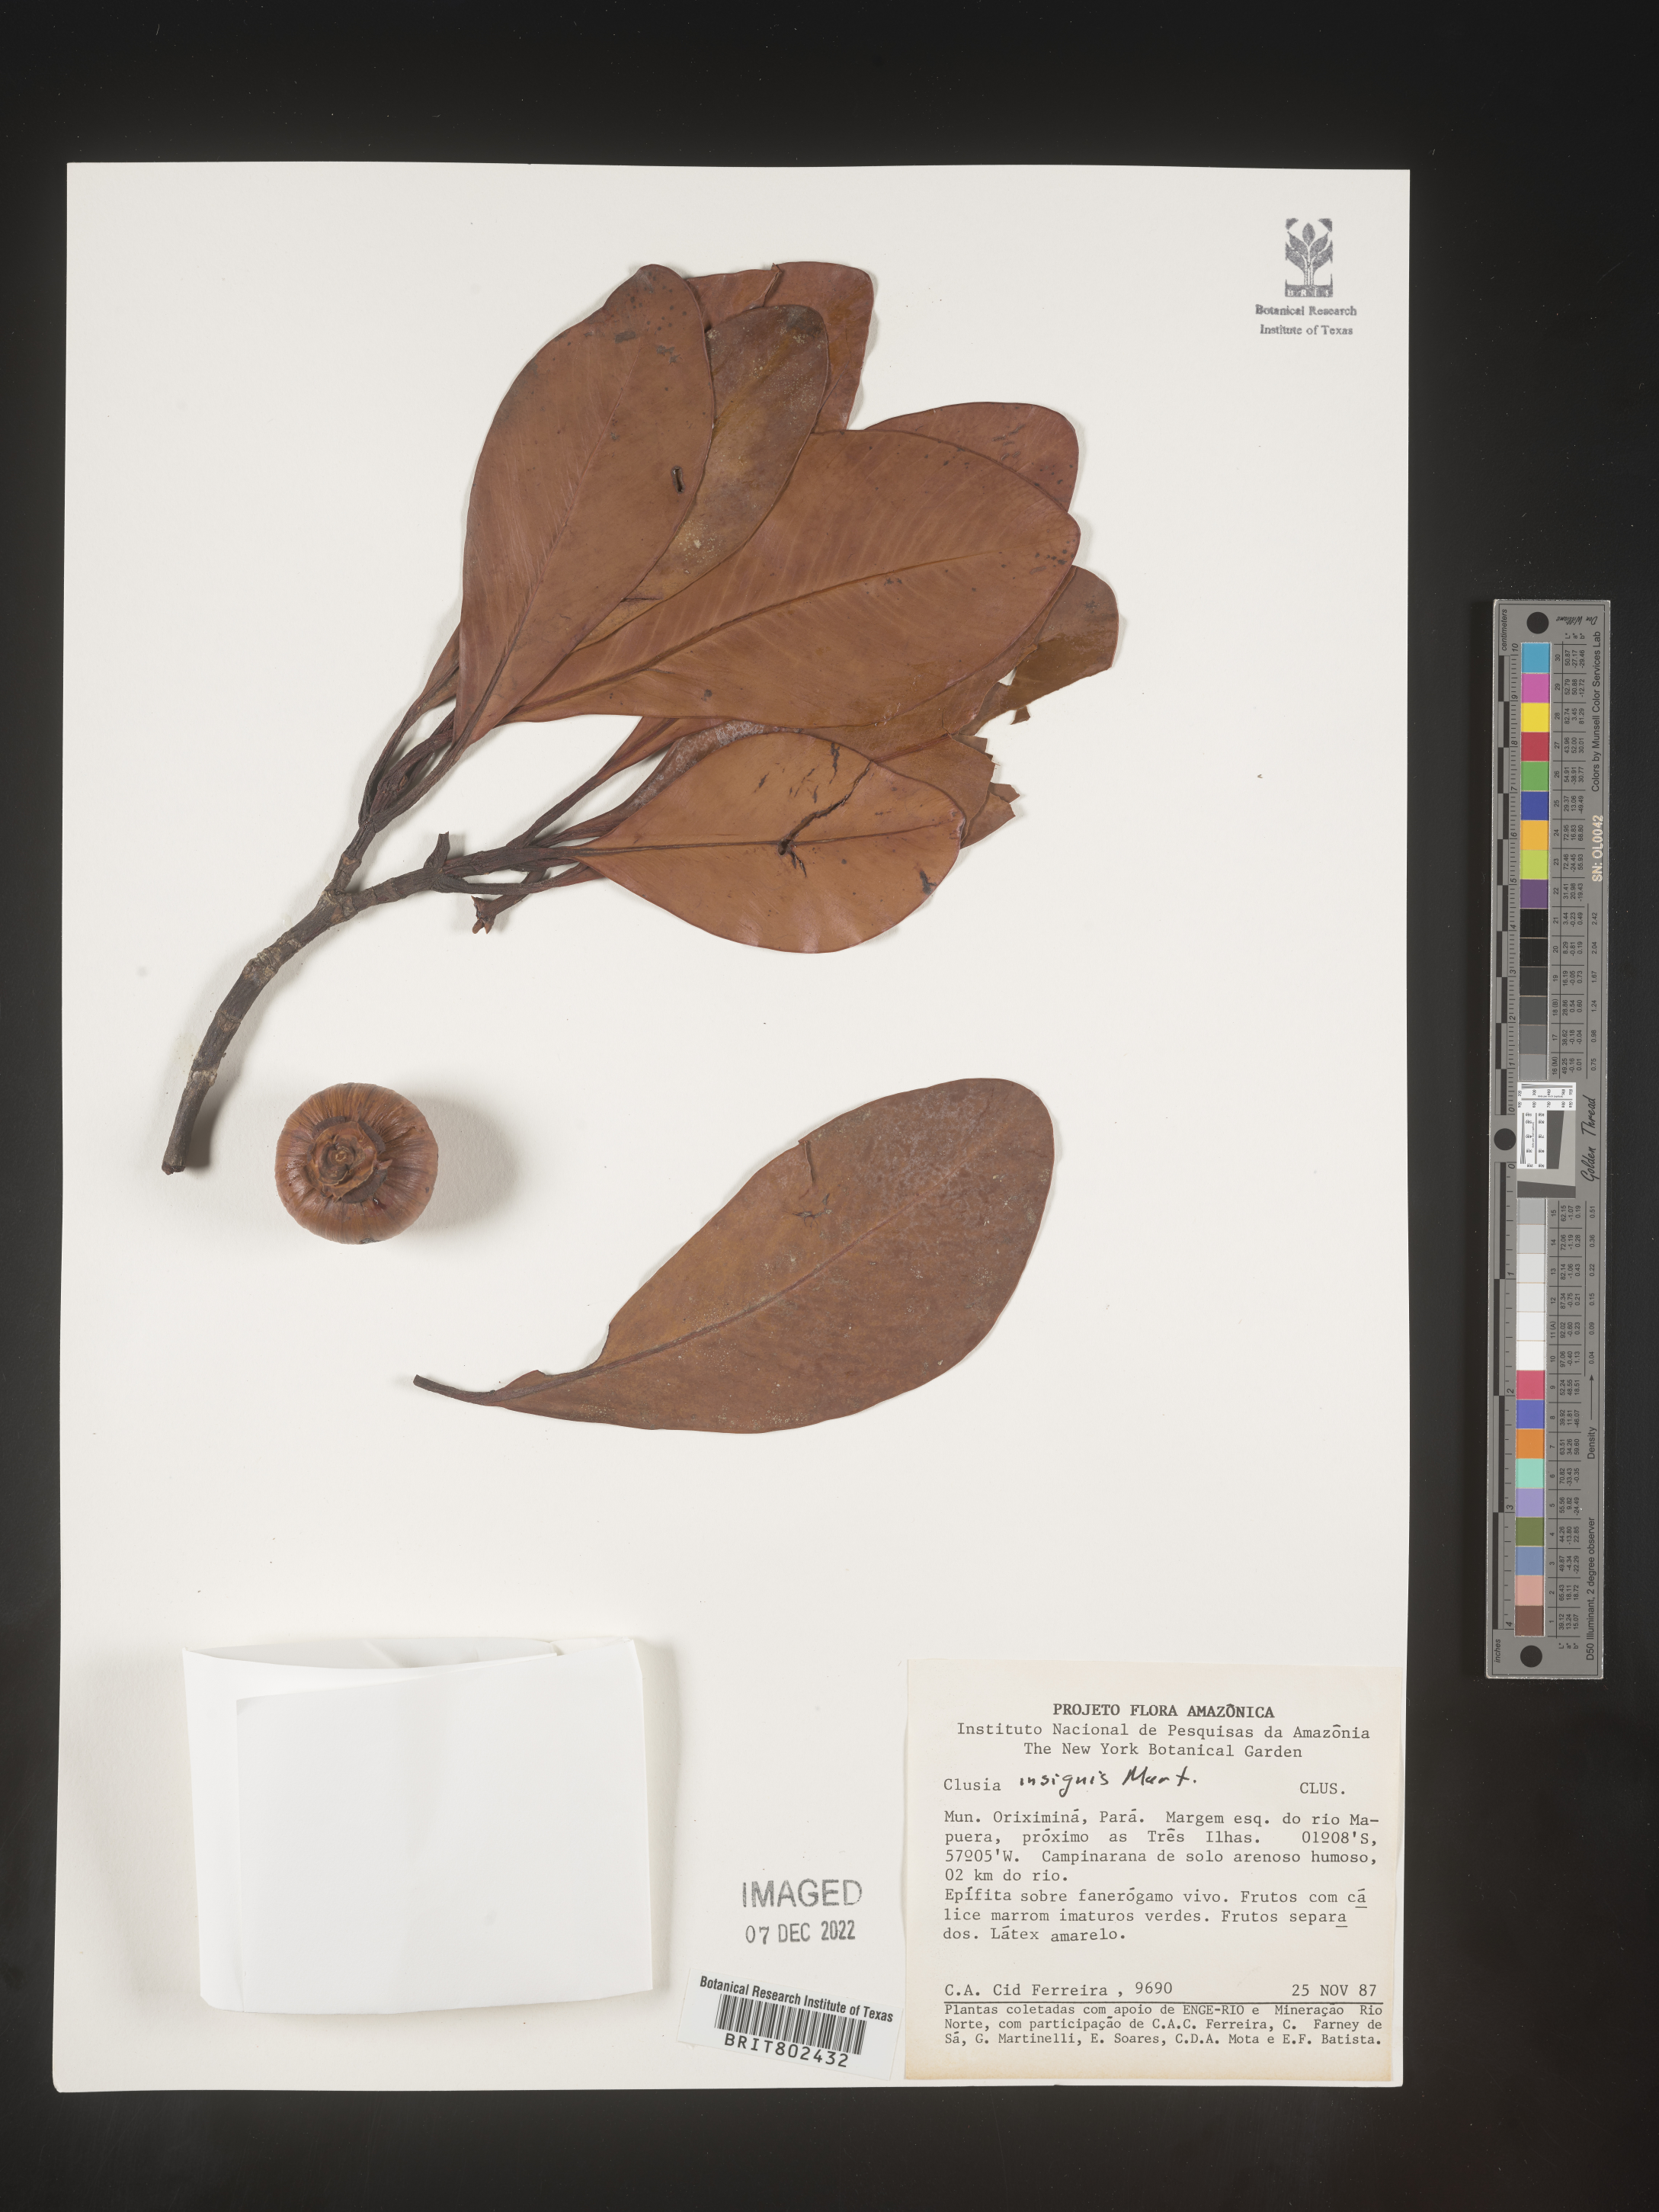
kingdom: Plantae
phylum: Tracheophyta
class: Magnoliopsida
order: Malpighiales
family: Clusiaceae
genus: Clusia
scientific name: Clusia insignis
